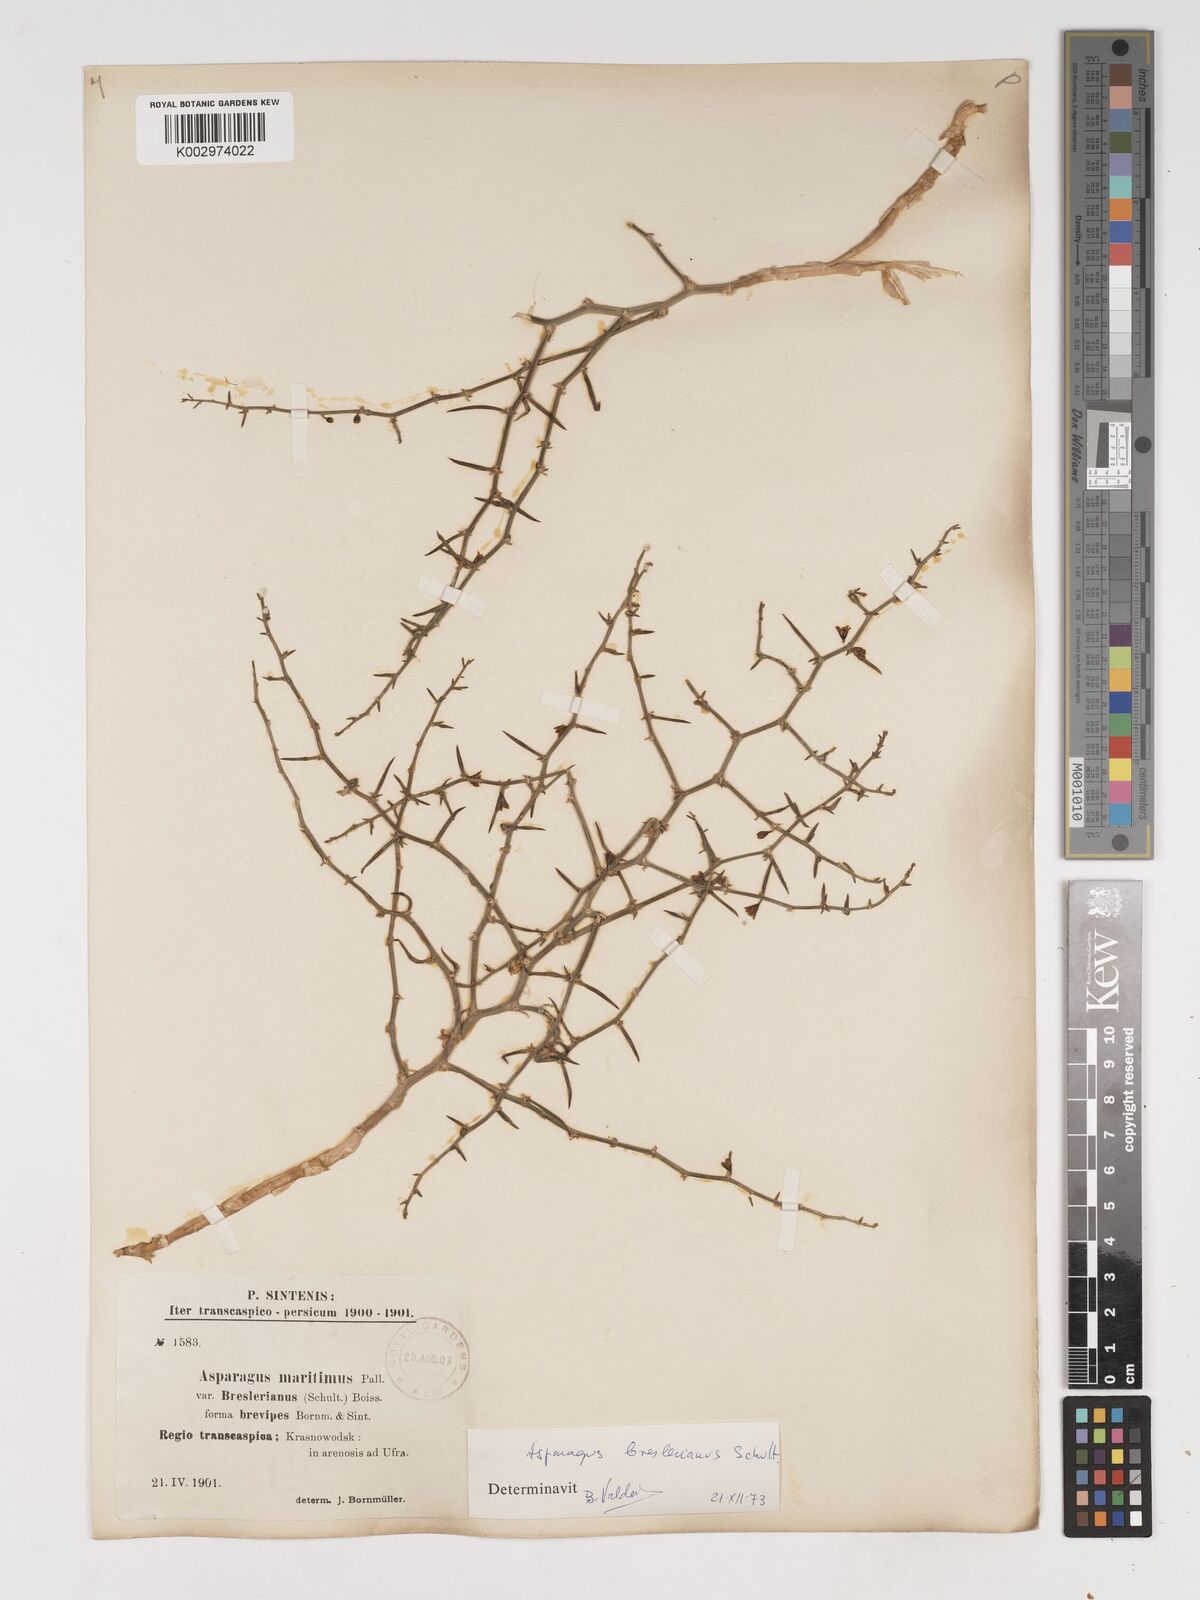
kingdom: Plantae
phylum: Tracheophyta
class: Liliopsida
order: Asparagales
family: Asparagaceae
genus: Asparagus
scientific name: Asparagus
